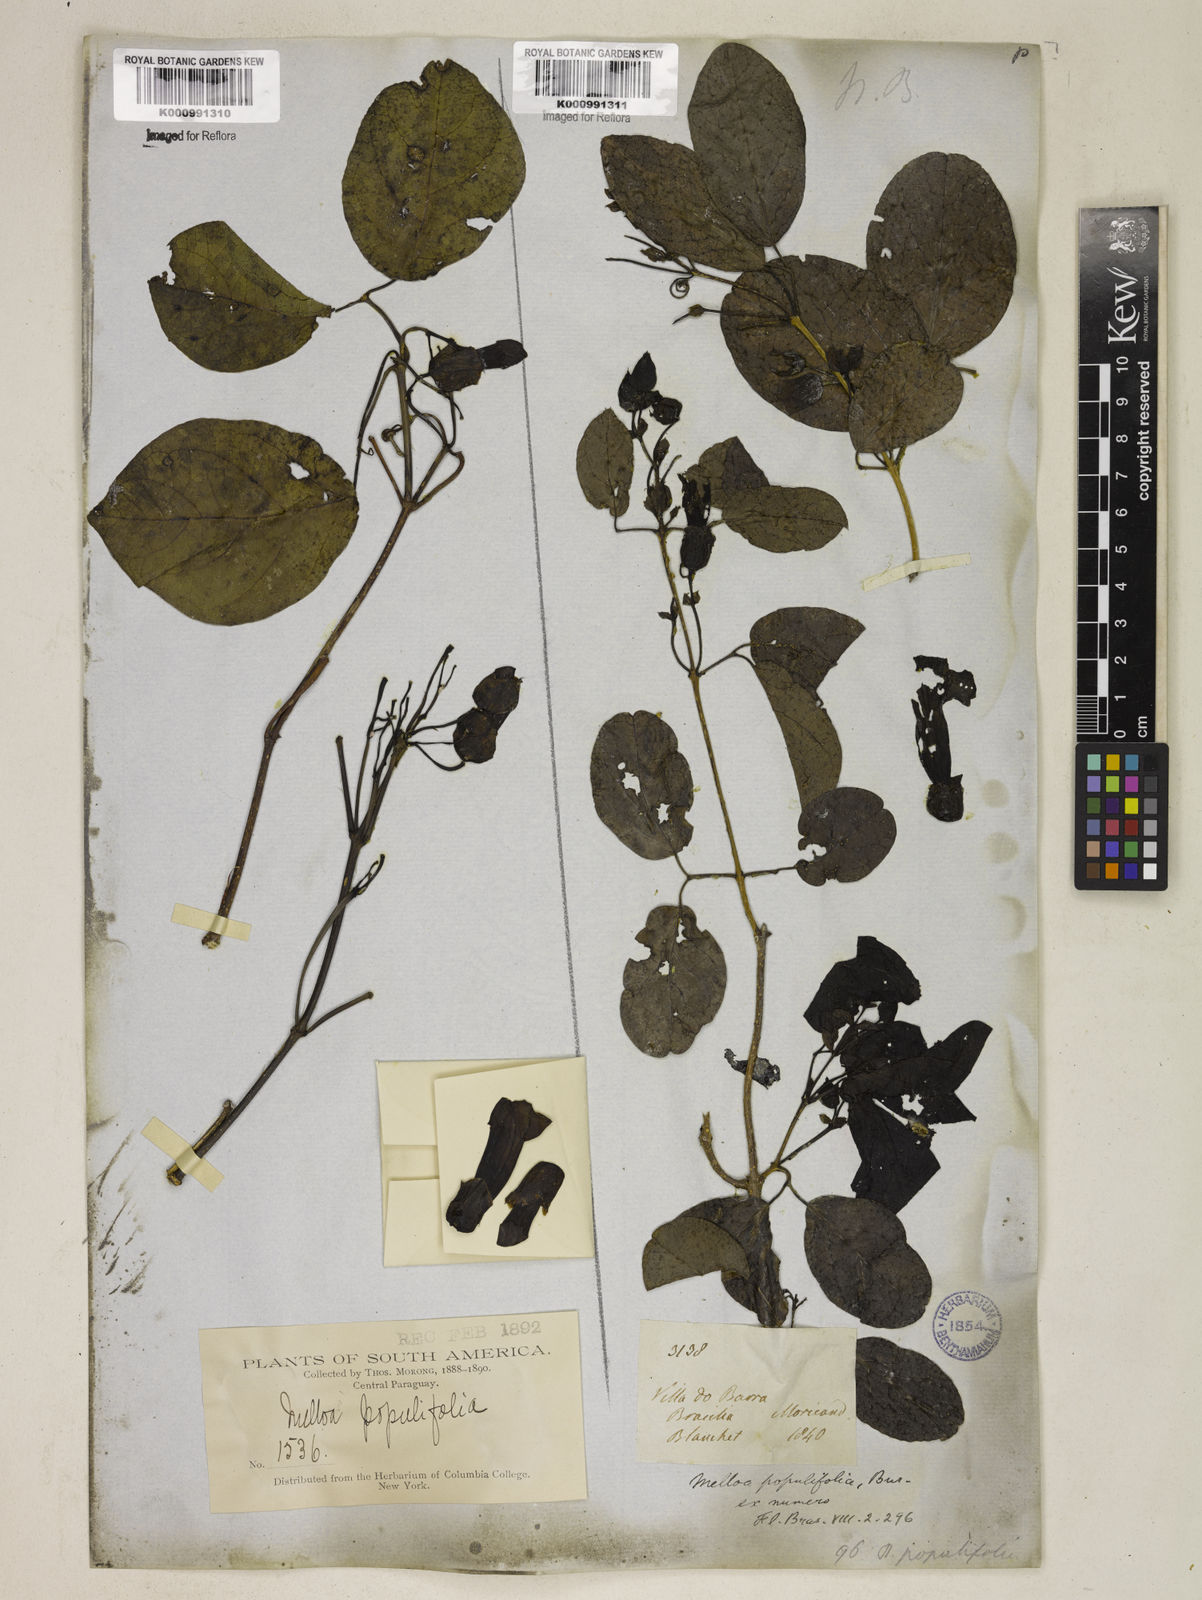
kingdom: Plantae
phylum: Tracheophyta
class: Magnoliopsida
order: Lamiales
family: Bignoniaceae
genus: Dolichandra
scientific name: Dolichandra quadrivalvis
